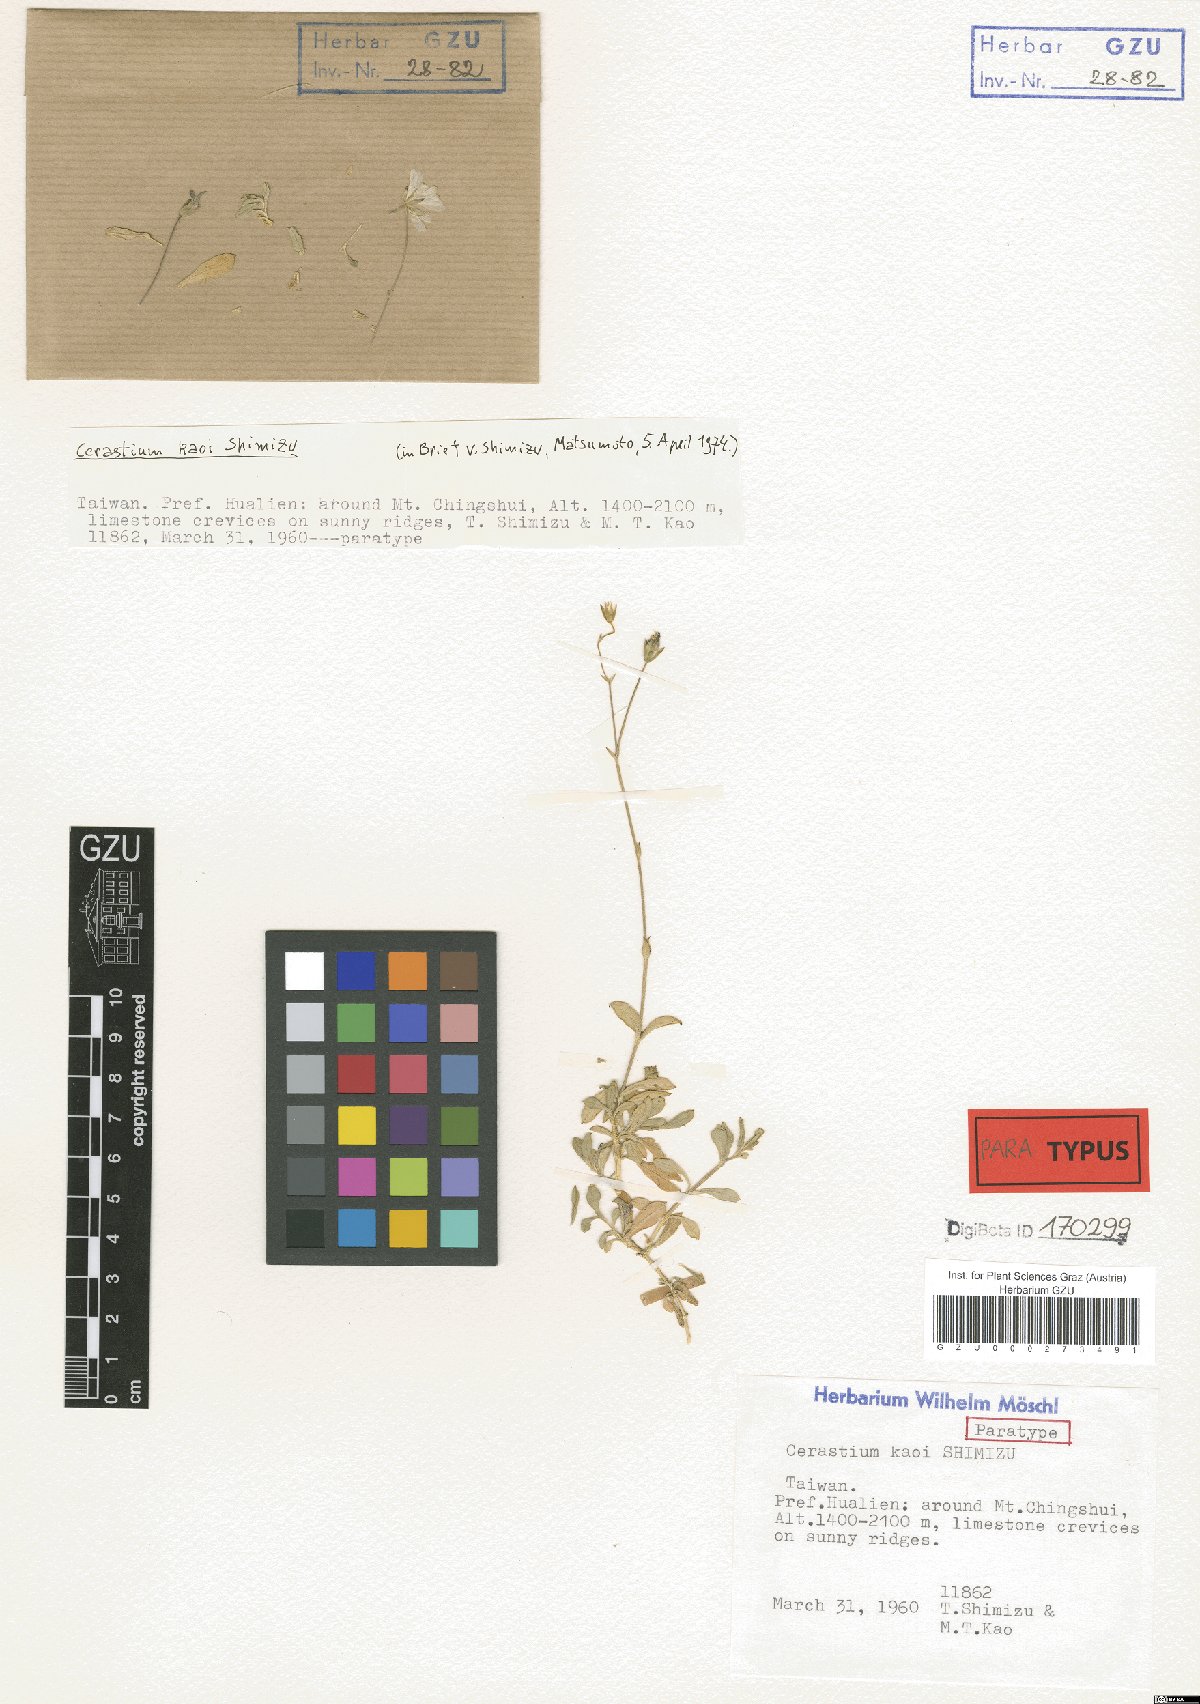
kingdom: Plantae
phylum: Tracheophyta
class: Magnoliopsida
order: Caryophyllales
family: Caryophyllaceae
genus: Cerastium
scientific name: Cerastium kaoi
